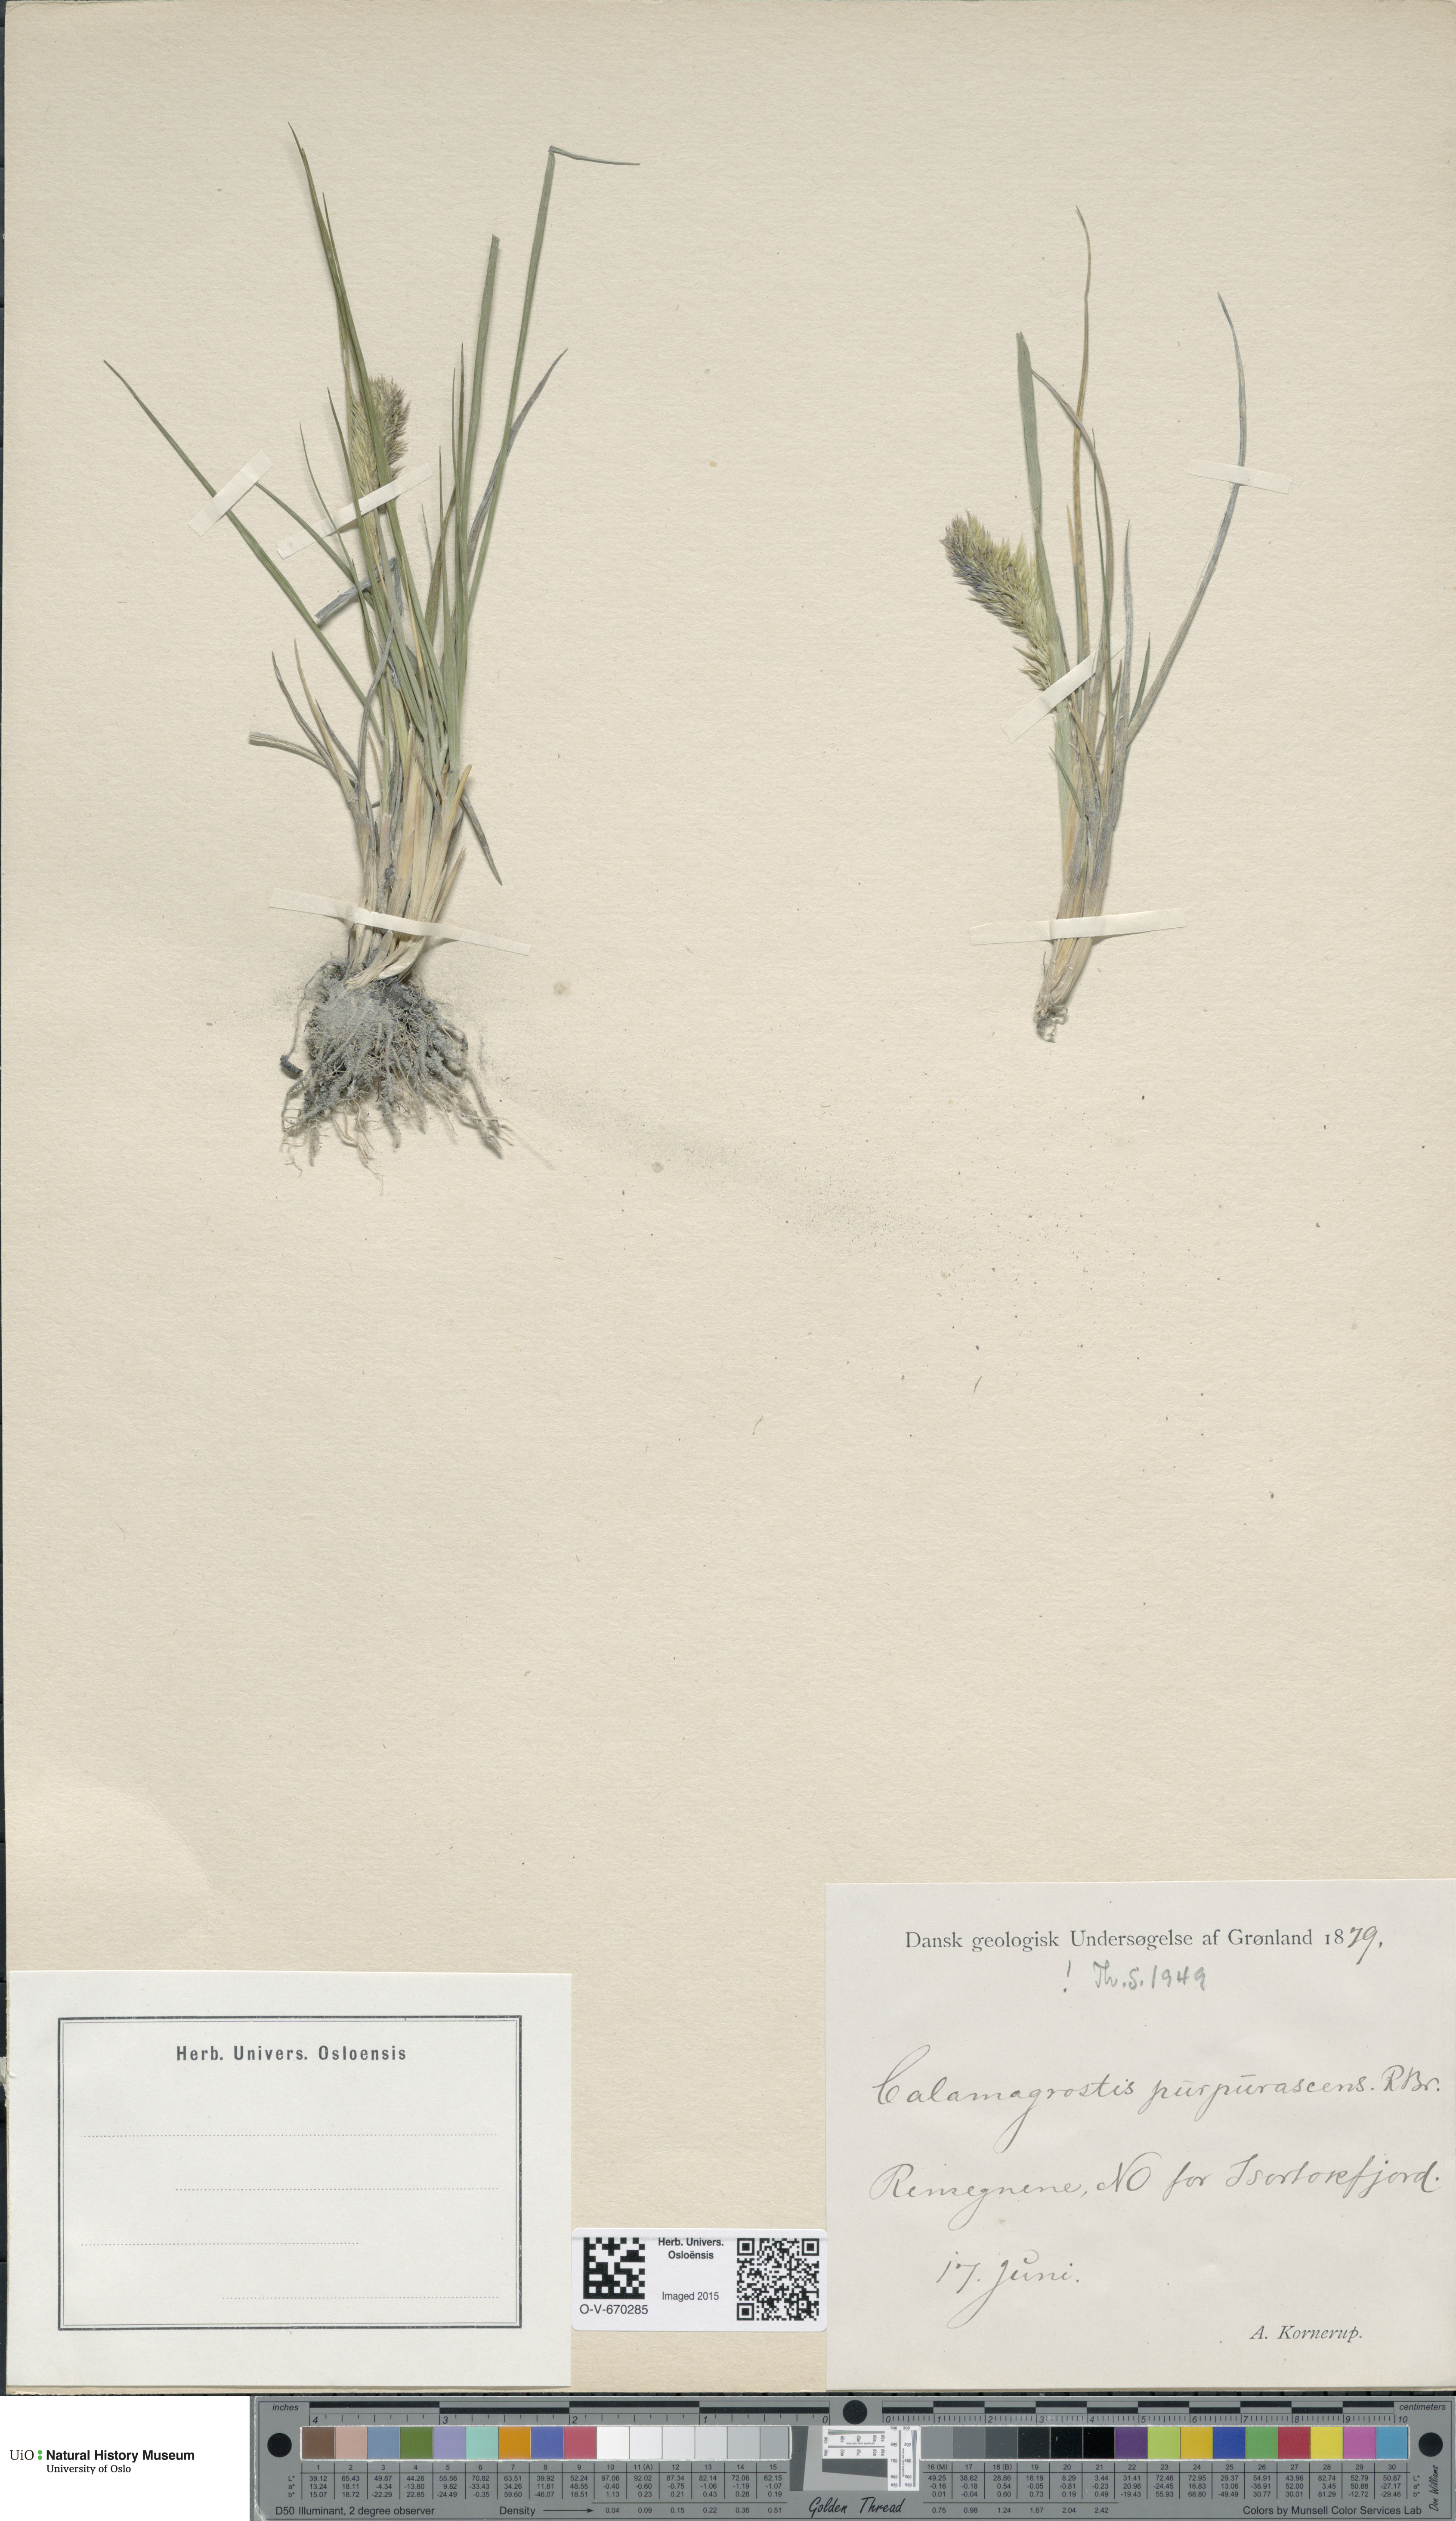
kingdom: Plantae
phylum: Tracheophyta
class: Liliopsida
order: Poales
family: Poaceae
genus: Calamagrostis
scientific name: Calamagrostis purpurascens
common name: Purple reedgrass
